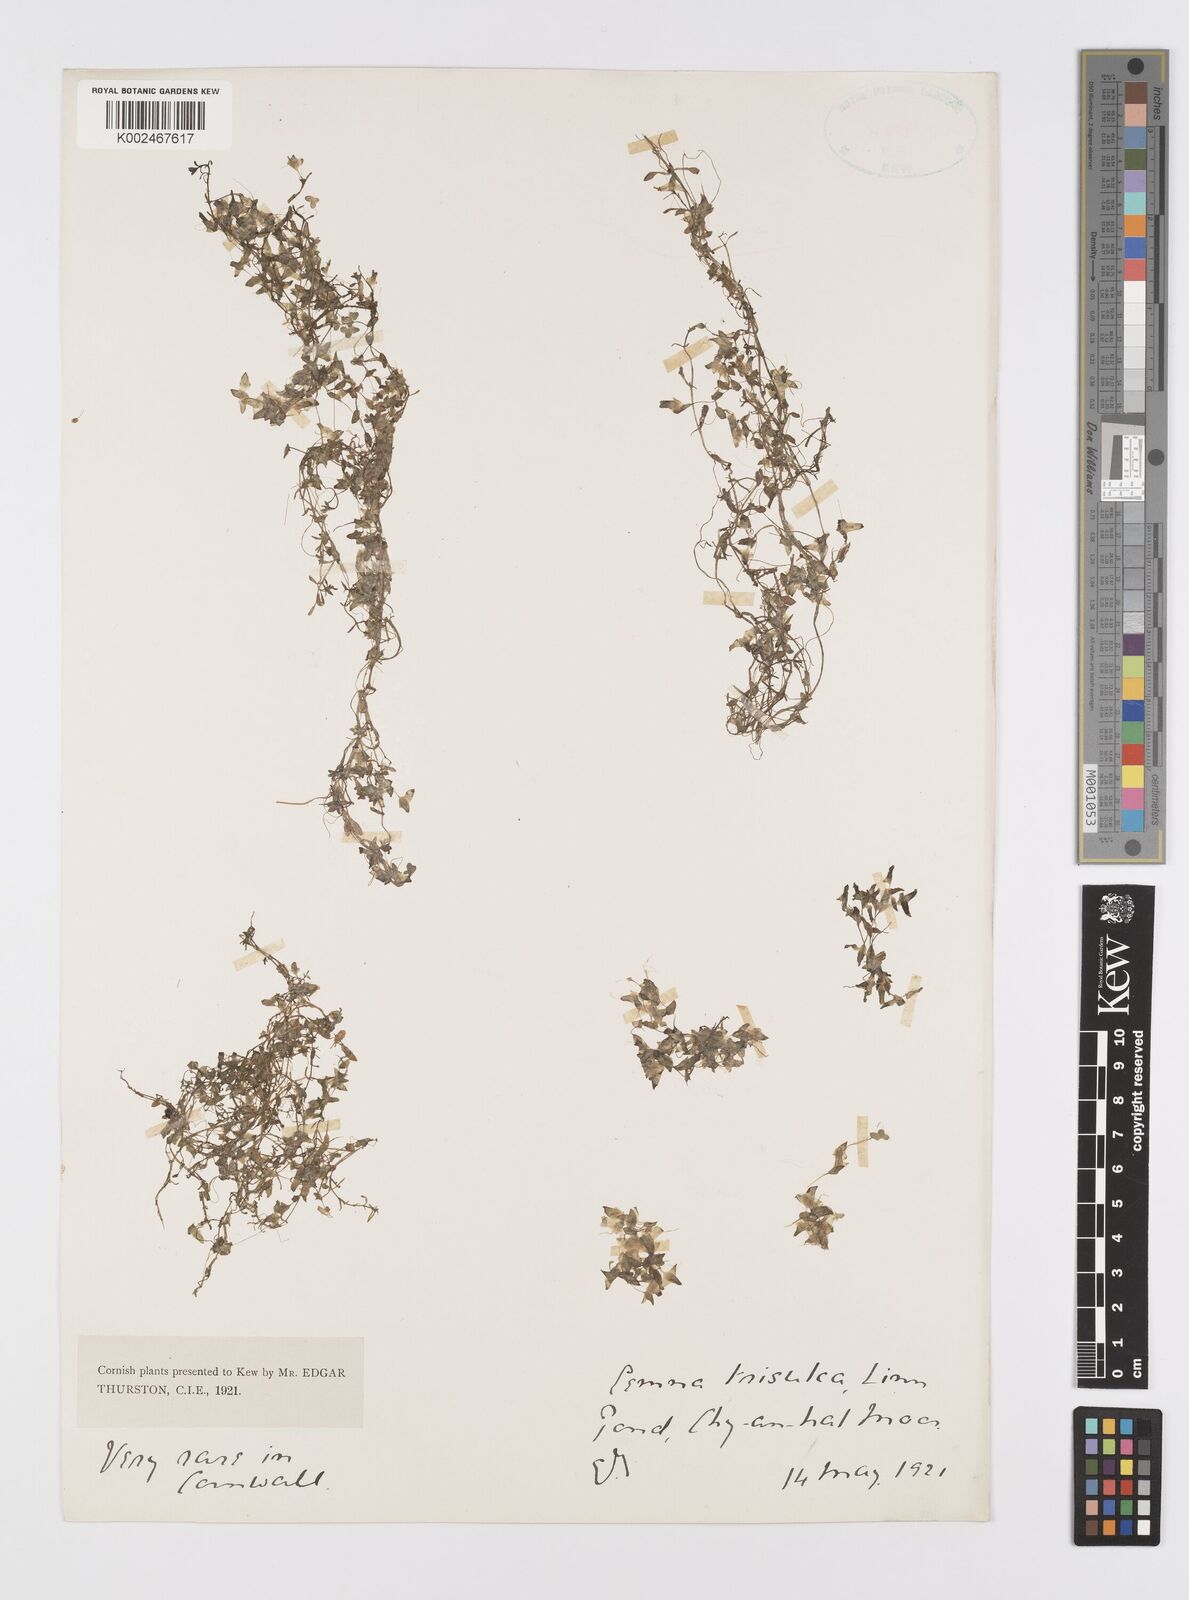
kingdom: Plantae
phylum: Tracheophyta
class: Liliopsida
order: Alismatales
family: Araceae
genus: Lemna
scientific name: Lemna trisulca
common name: Ivy-leaved duckweed
